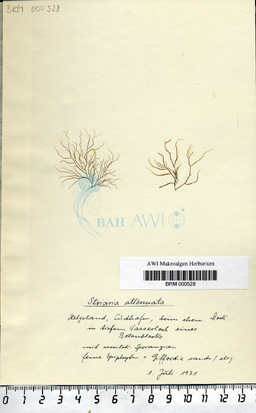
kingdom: Chromista
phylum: Ochrophyta
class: Phaeophyceae
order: Ectocarpales
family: Chordariaceae
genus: Striaria
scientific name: Striaria attenuata
